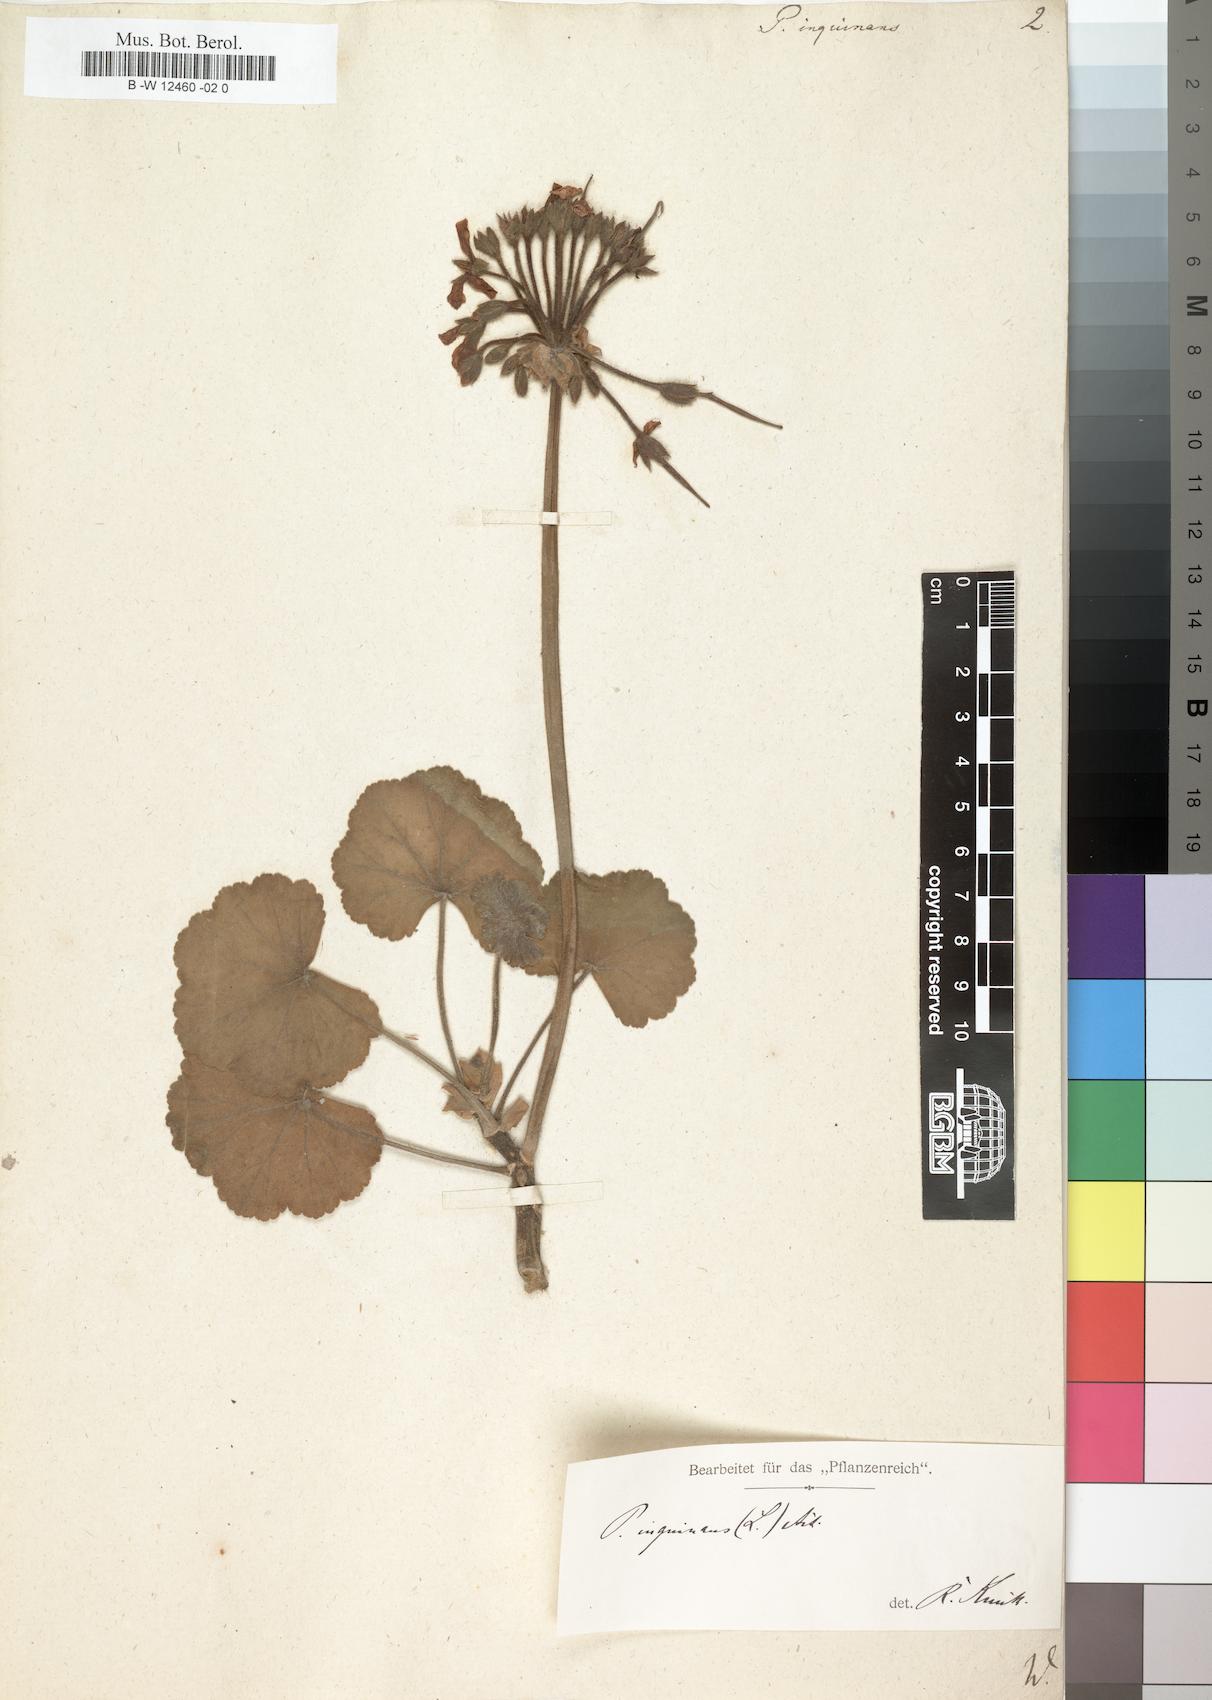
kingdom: Plantae
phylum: Tracheophyta
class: Magnoliopsida
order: Geraniales
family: Geraniaceae
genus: Pelargonium
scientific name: Pelargonium inquinans
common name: Scarlet geranium
